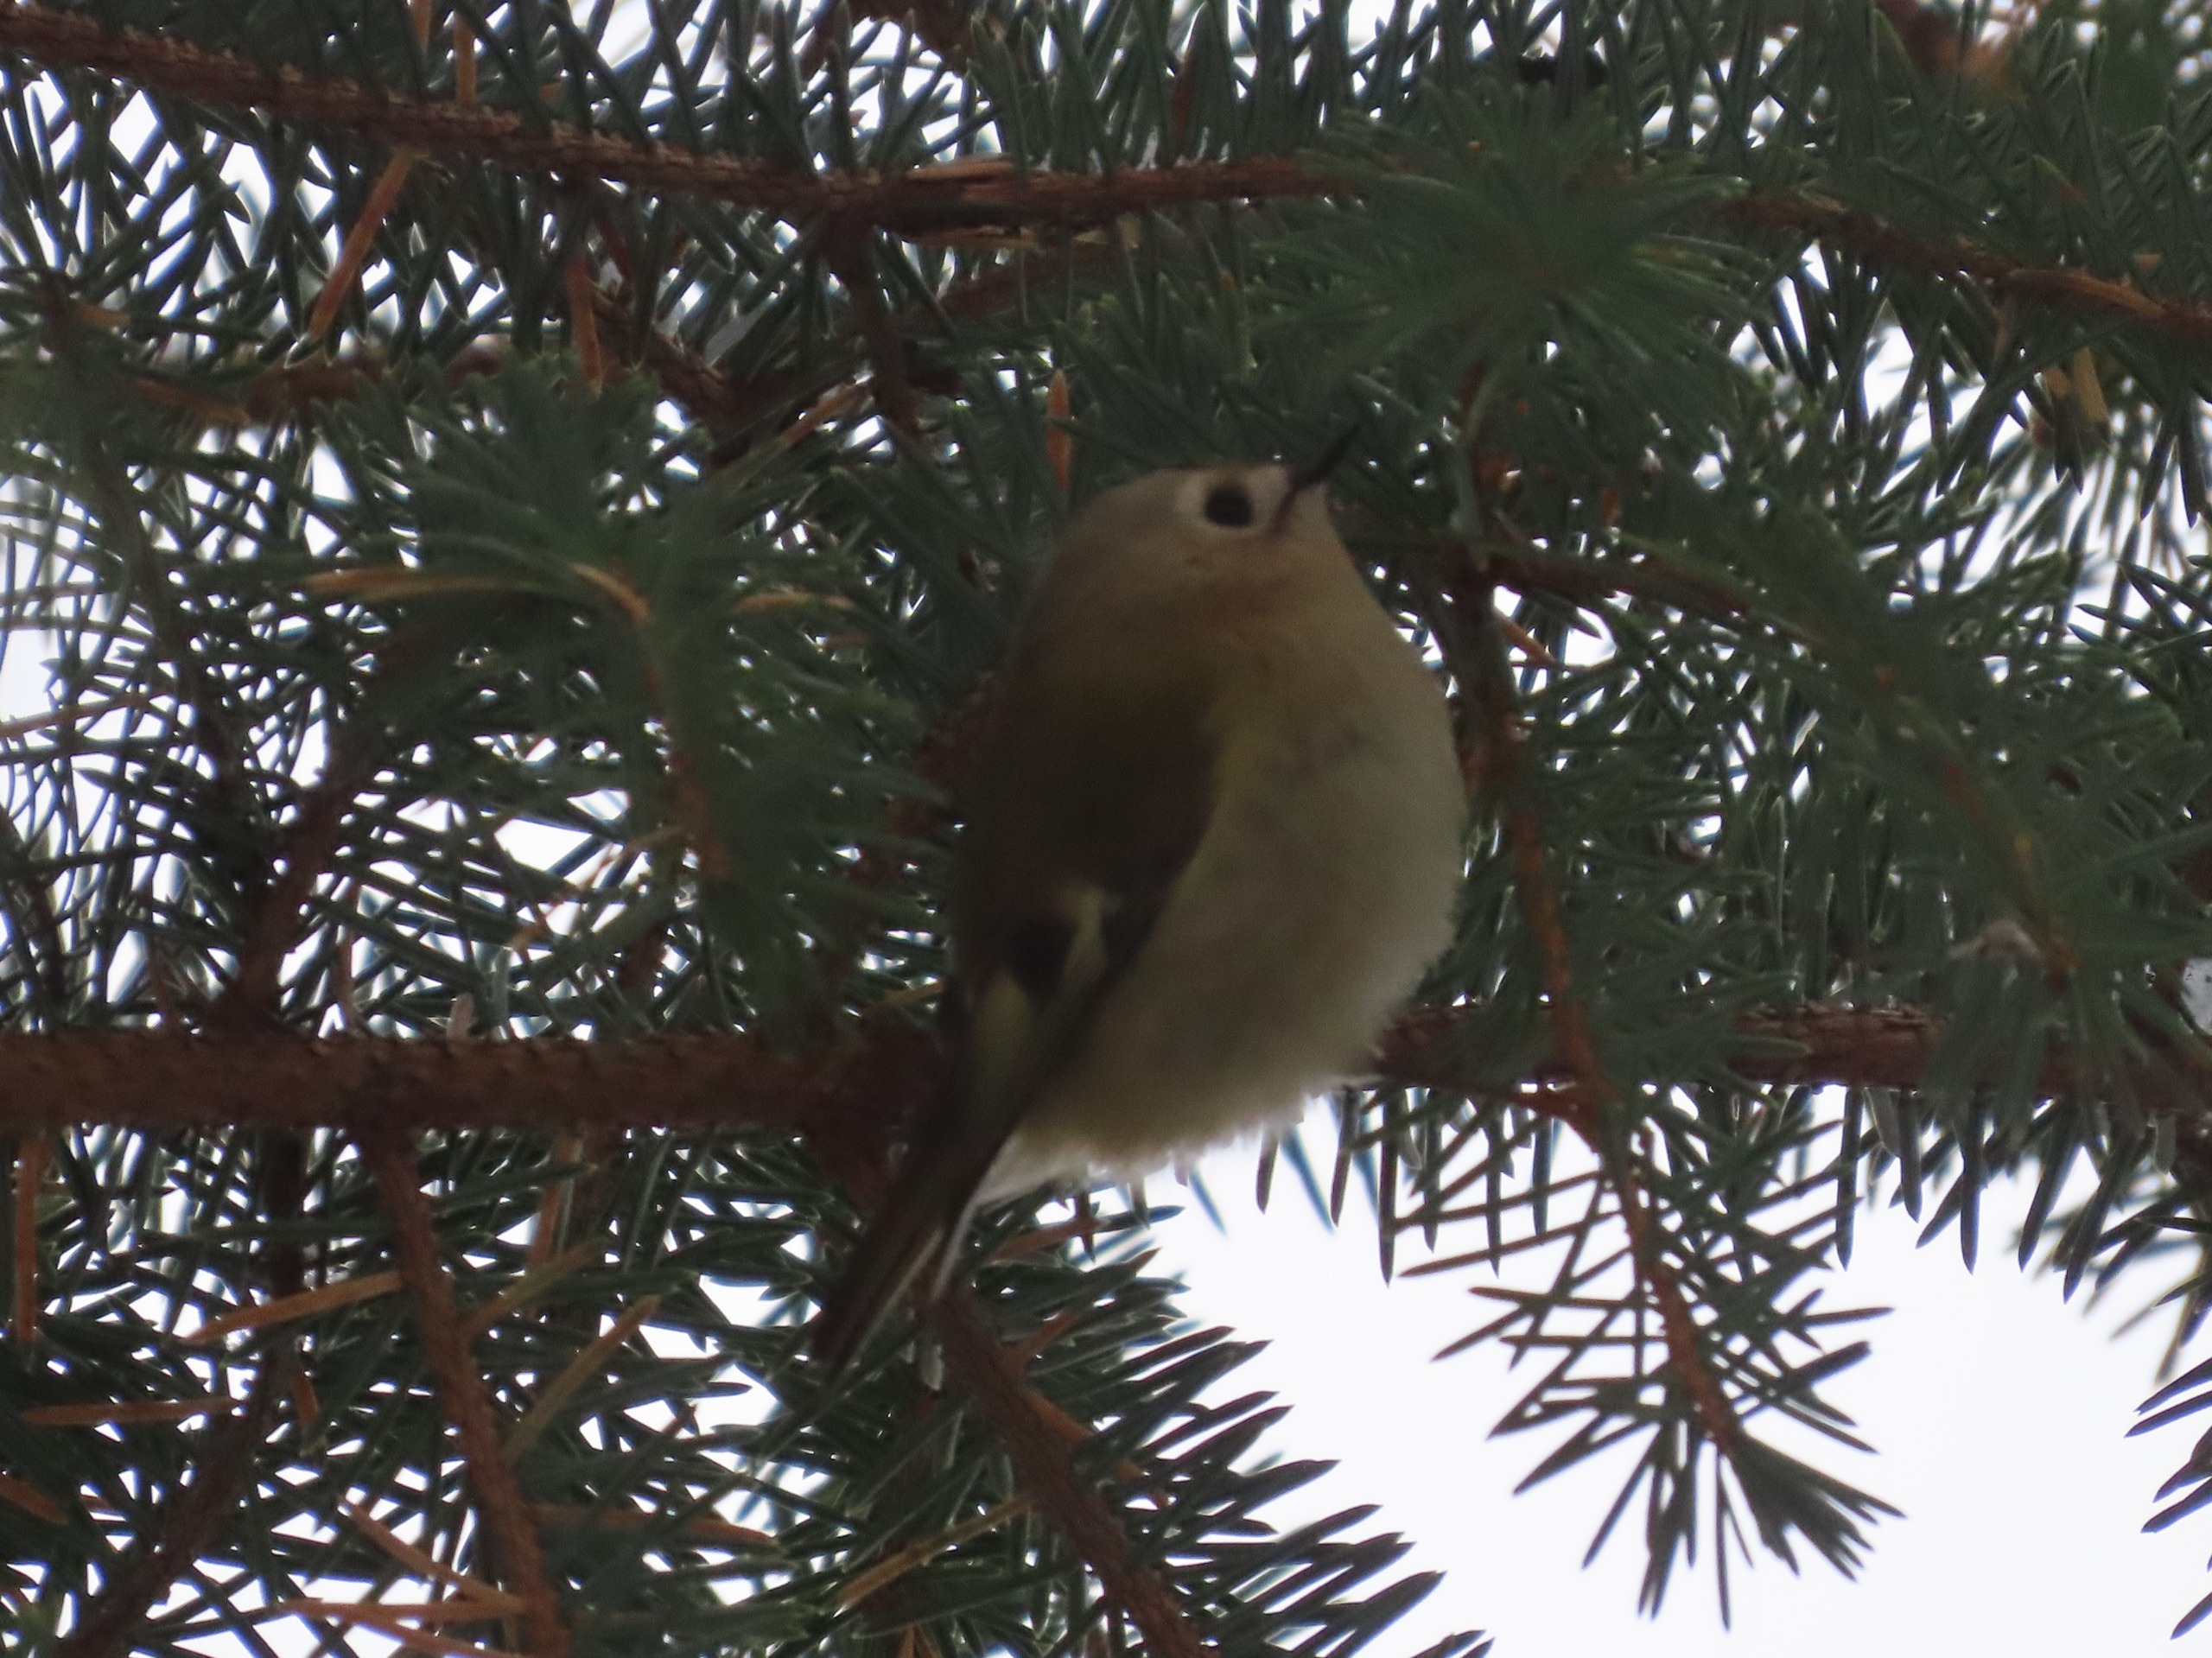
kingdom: Animalia
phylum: Chordata
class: Aves
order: Passeriformes
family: Regulidae
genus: Regulus
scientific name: Regulus regulus
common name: Fuglekonge
